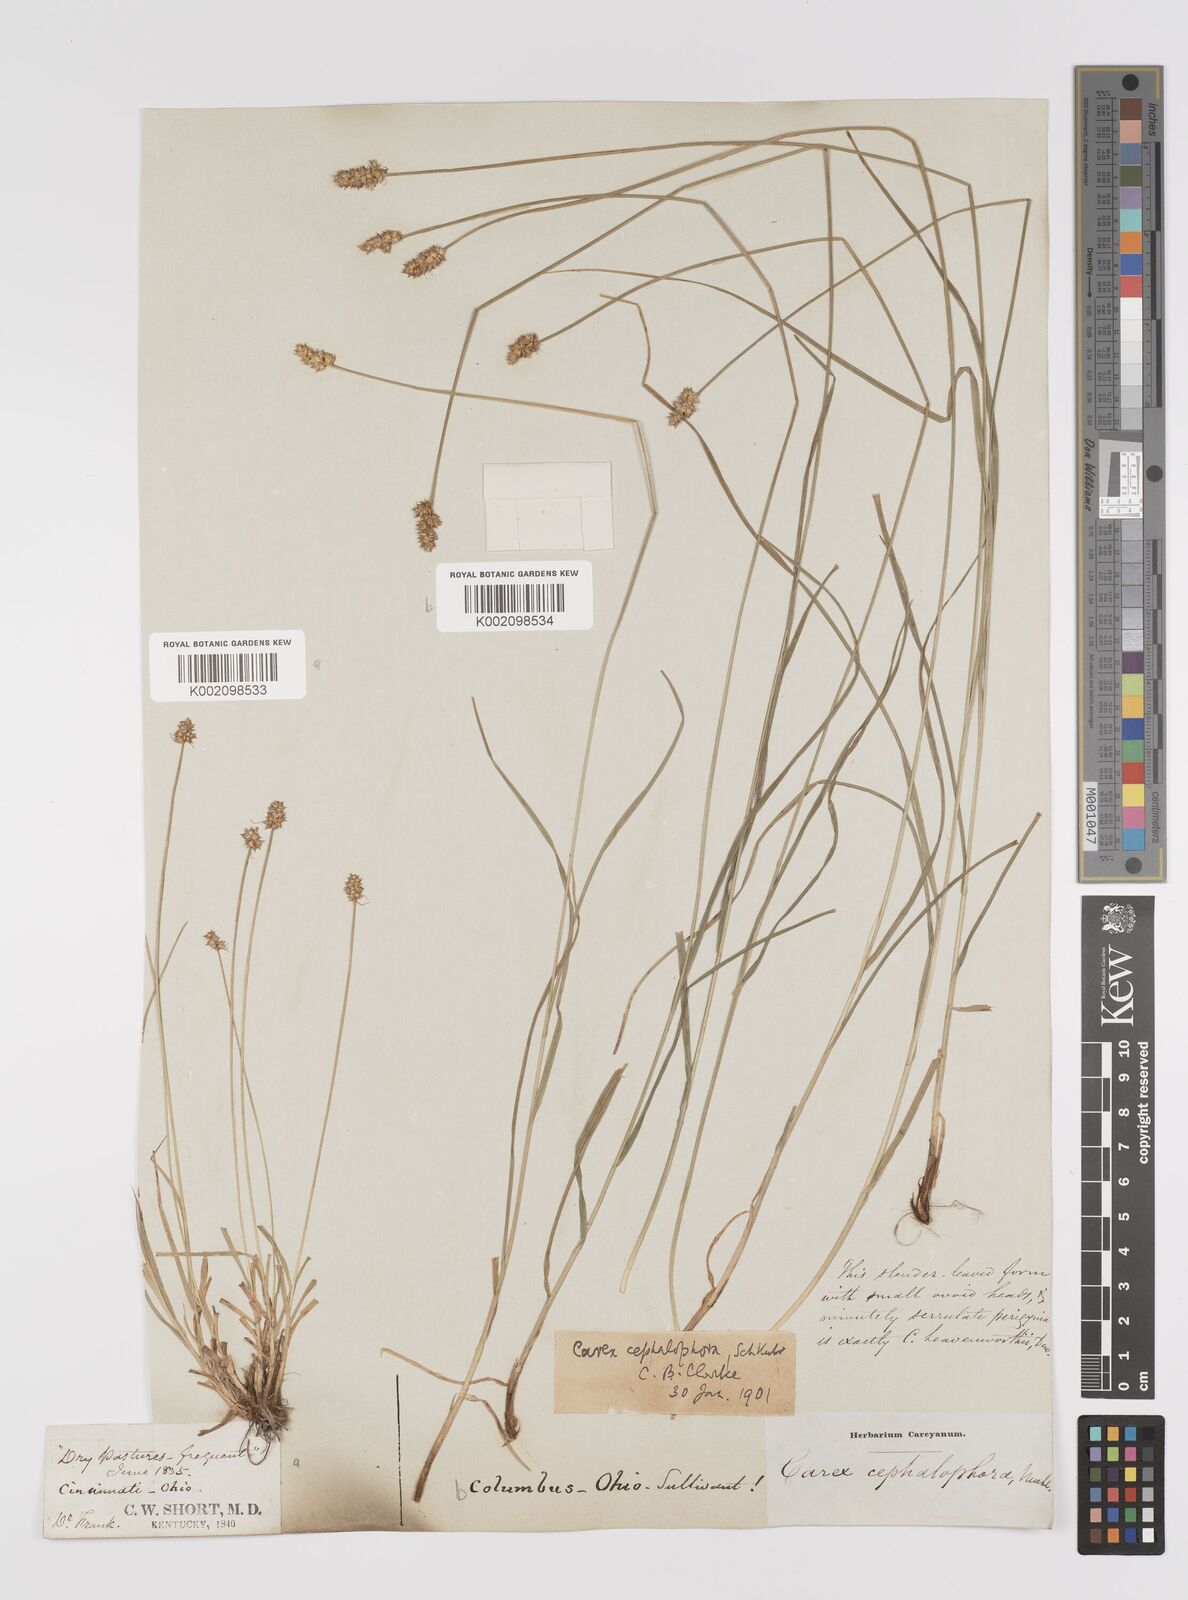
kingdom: Plantae
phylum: Tracheophyta
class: Liliopsida
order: Poales
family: Cyperaceae
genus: Carex
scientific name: Carex cephalophora
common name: Oval-headed sedge
